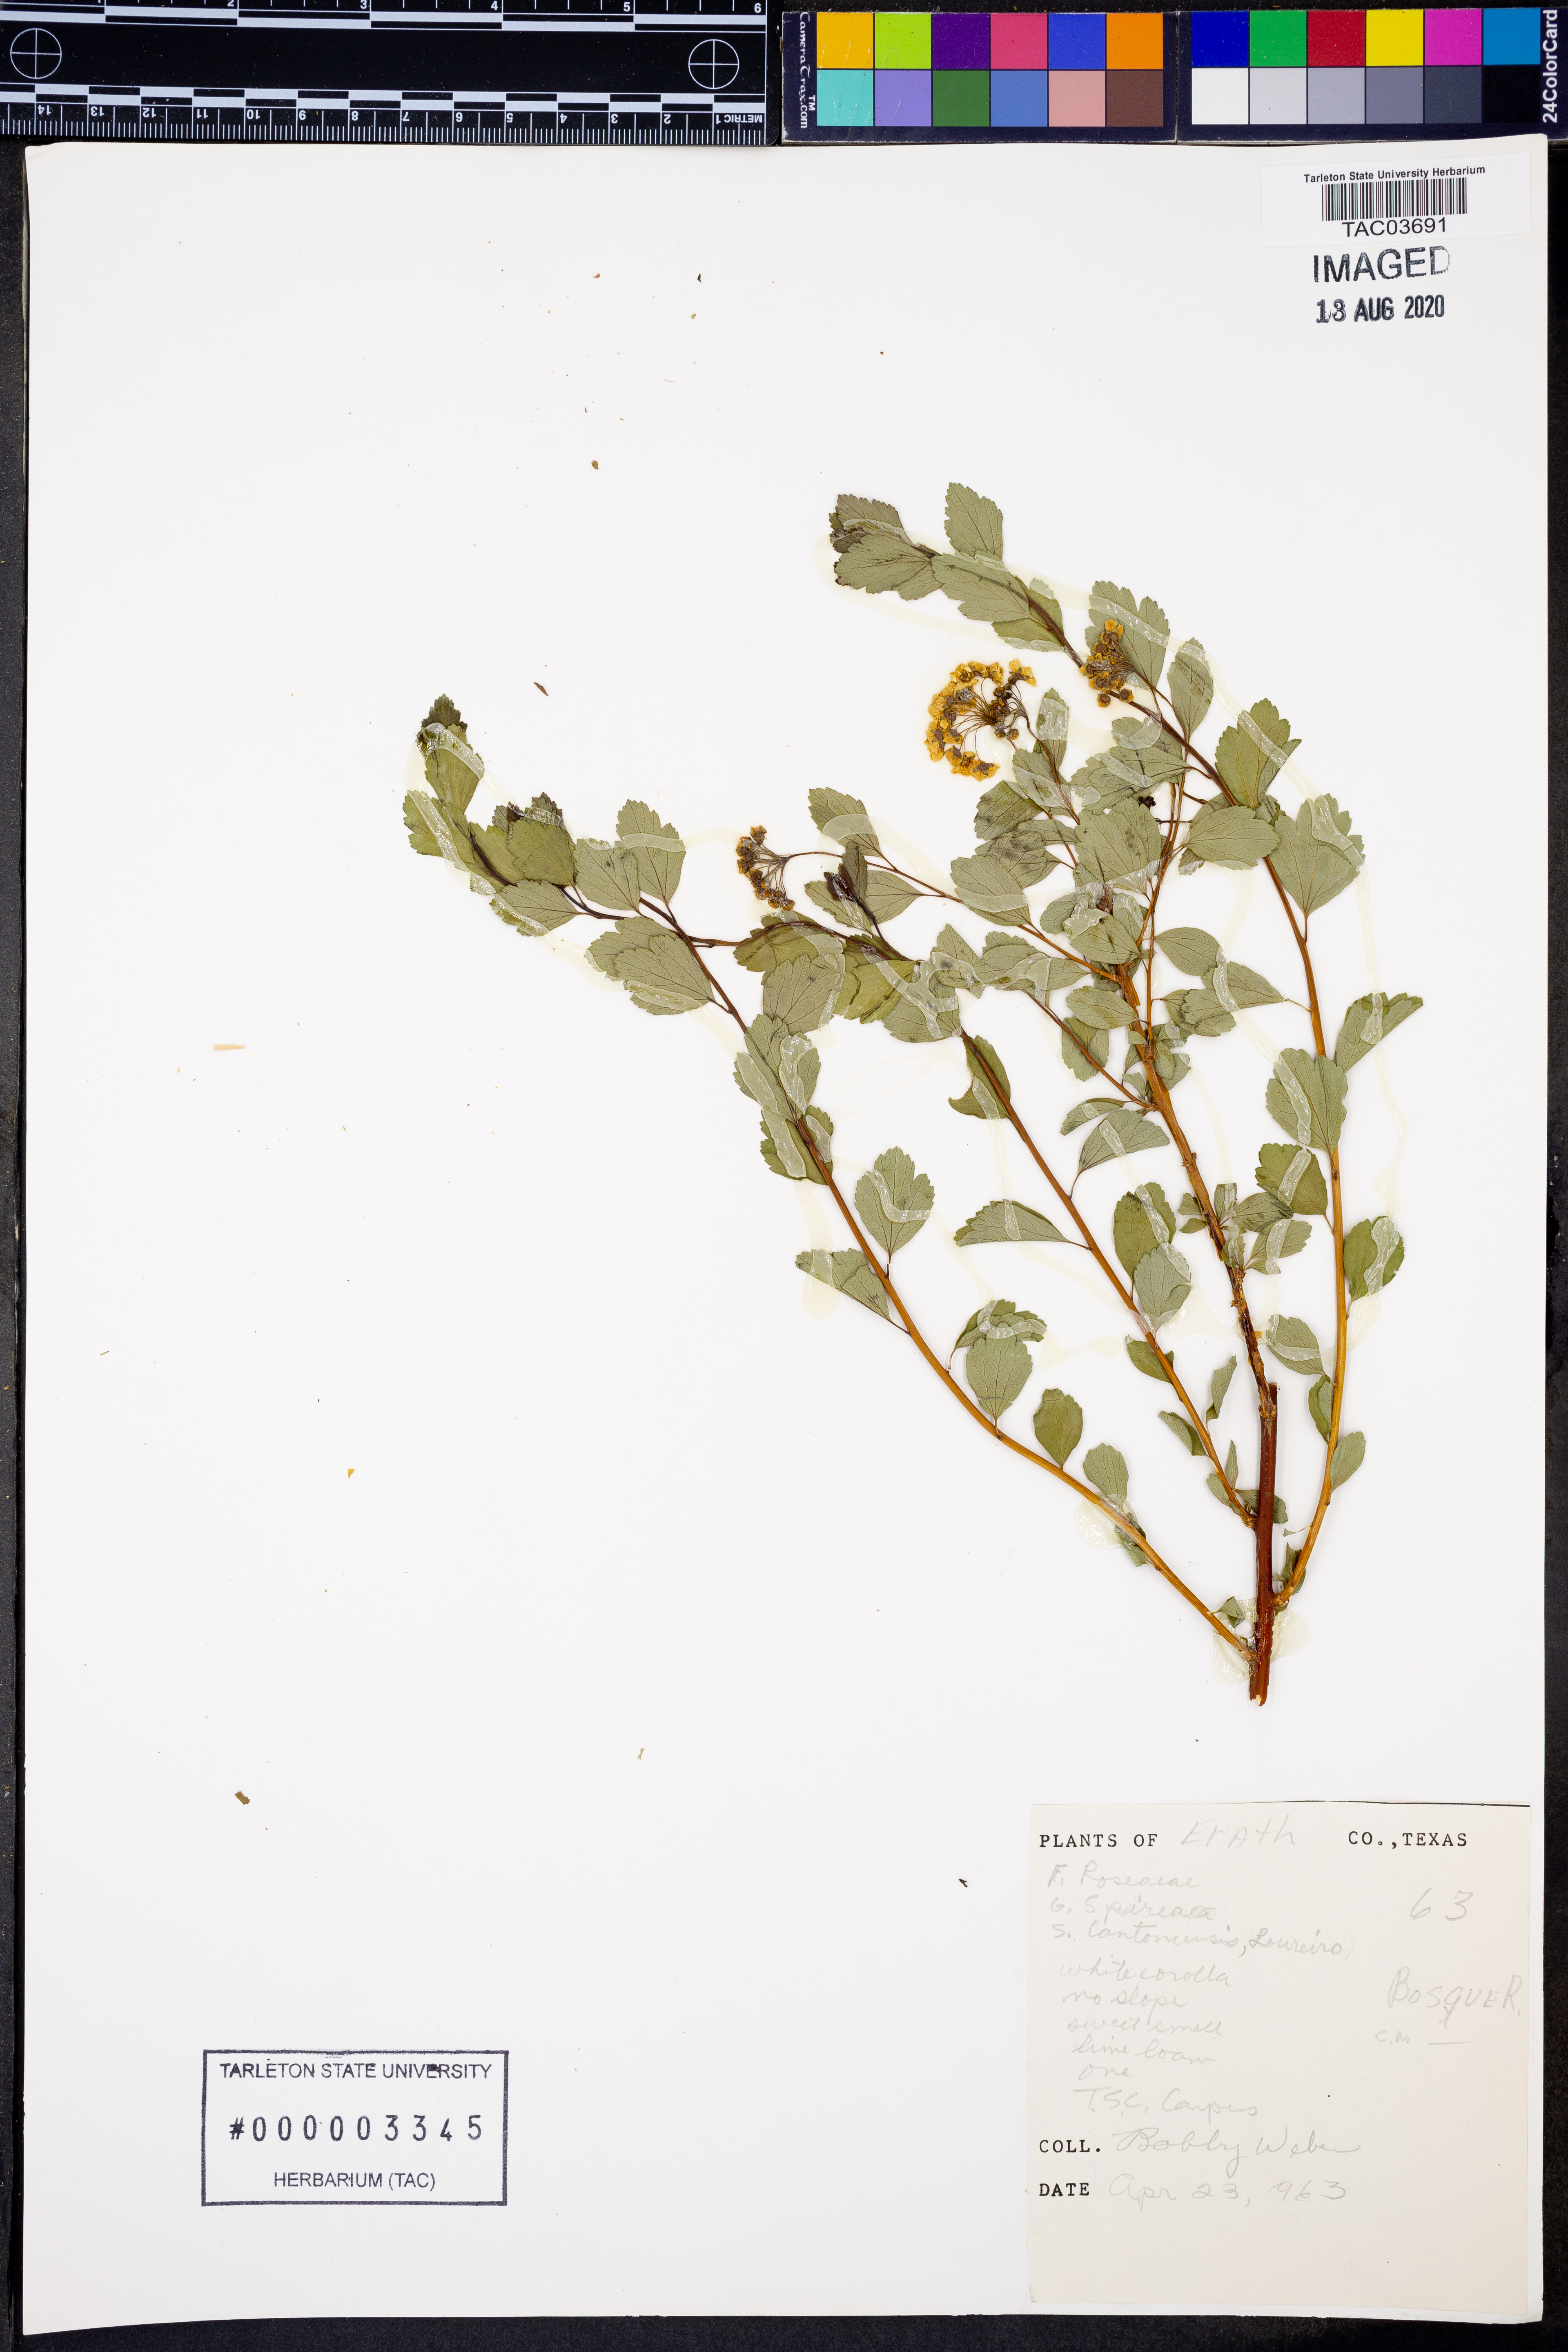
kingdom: Plantae
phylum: Tracheophyta
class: Magnoliopsida
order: Rosales
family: Rosaceae
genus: Spiraea
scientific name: Spiraea cantoniensis
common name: Reeves' meadowsweet
